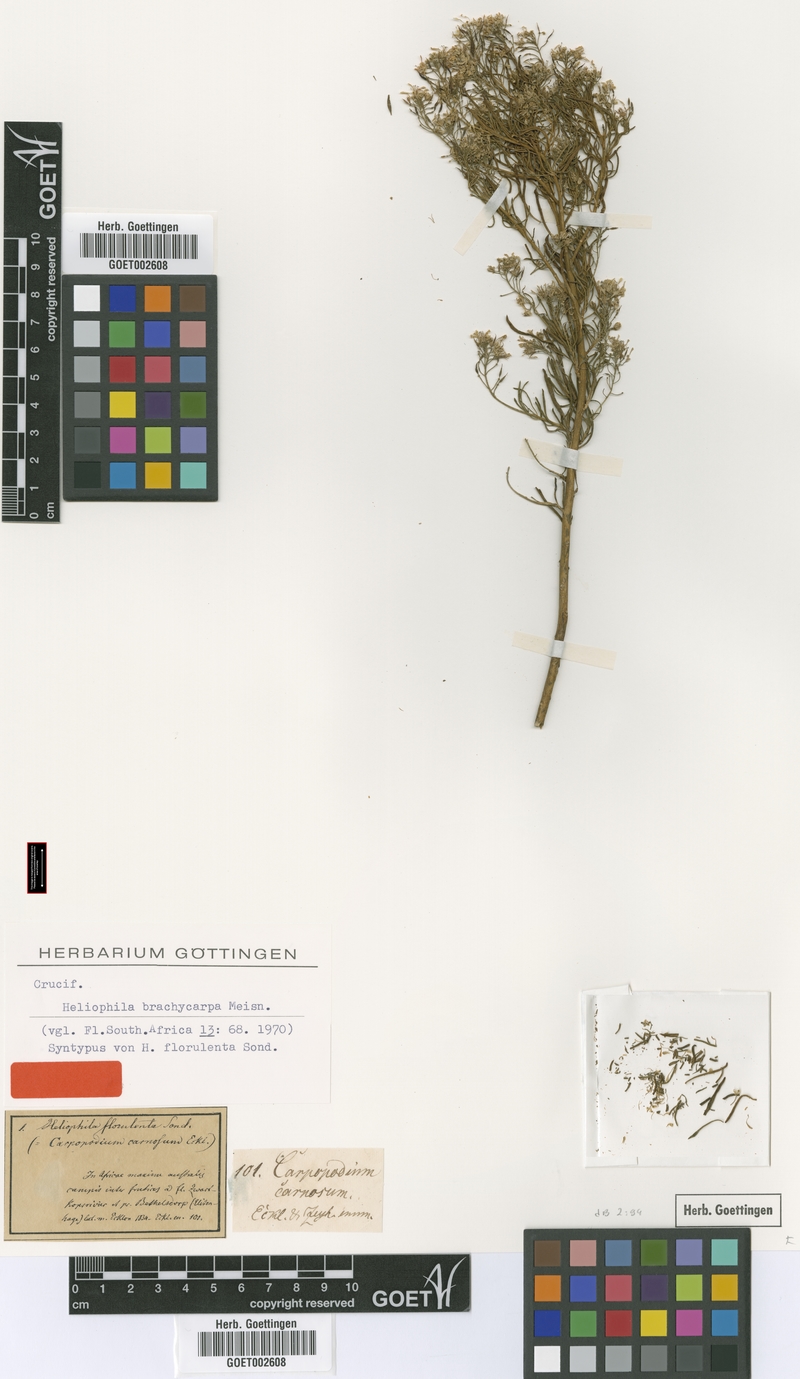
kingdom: Plantae
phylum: Tracheophyta
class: Magnoliopsida
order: Brassicales
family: Brassicaceae
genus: Heliophila
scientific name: Heliophila brachycarpa
